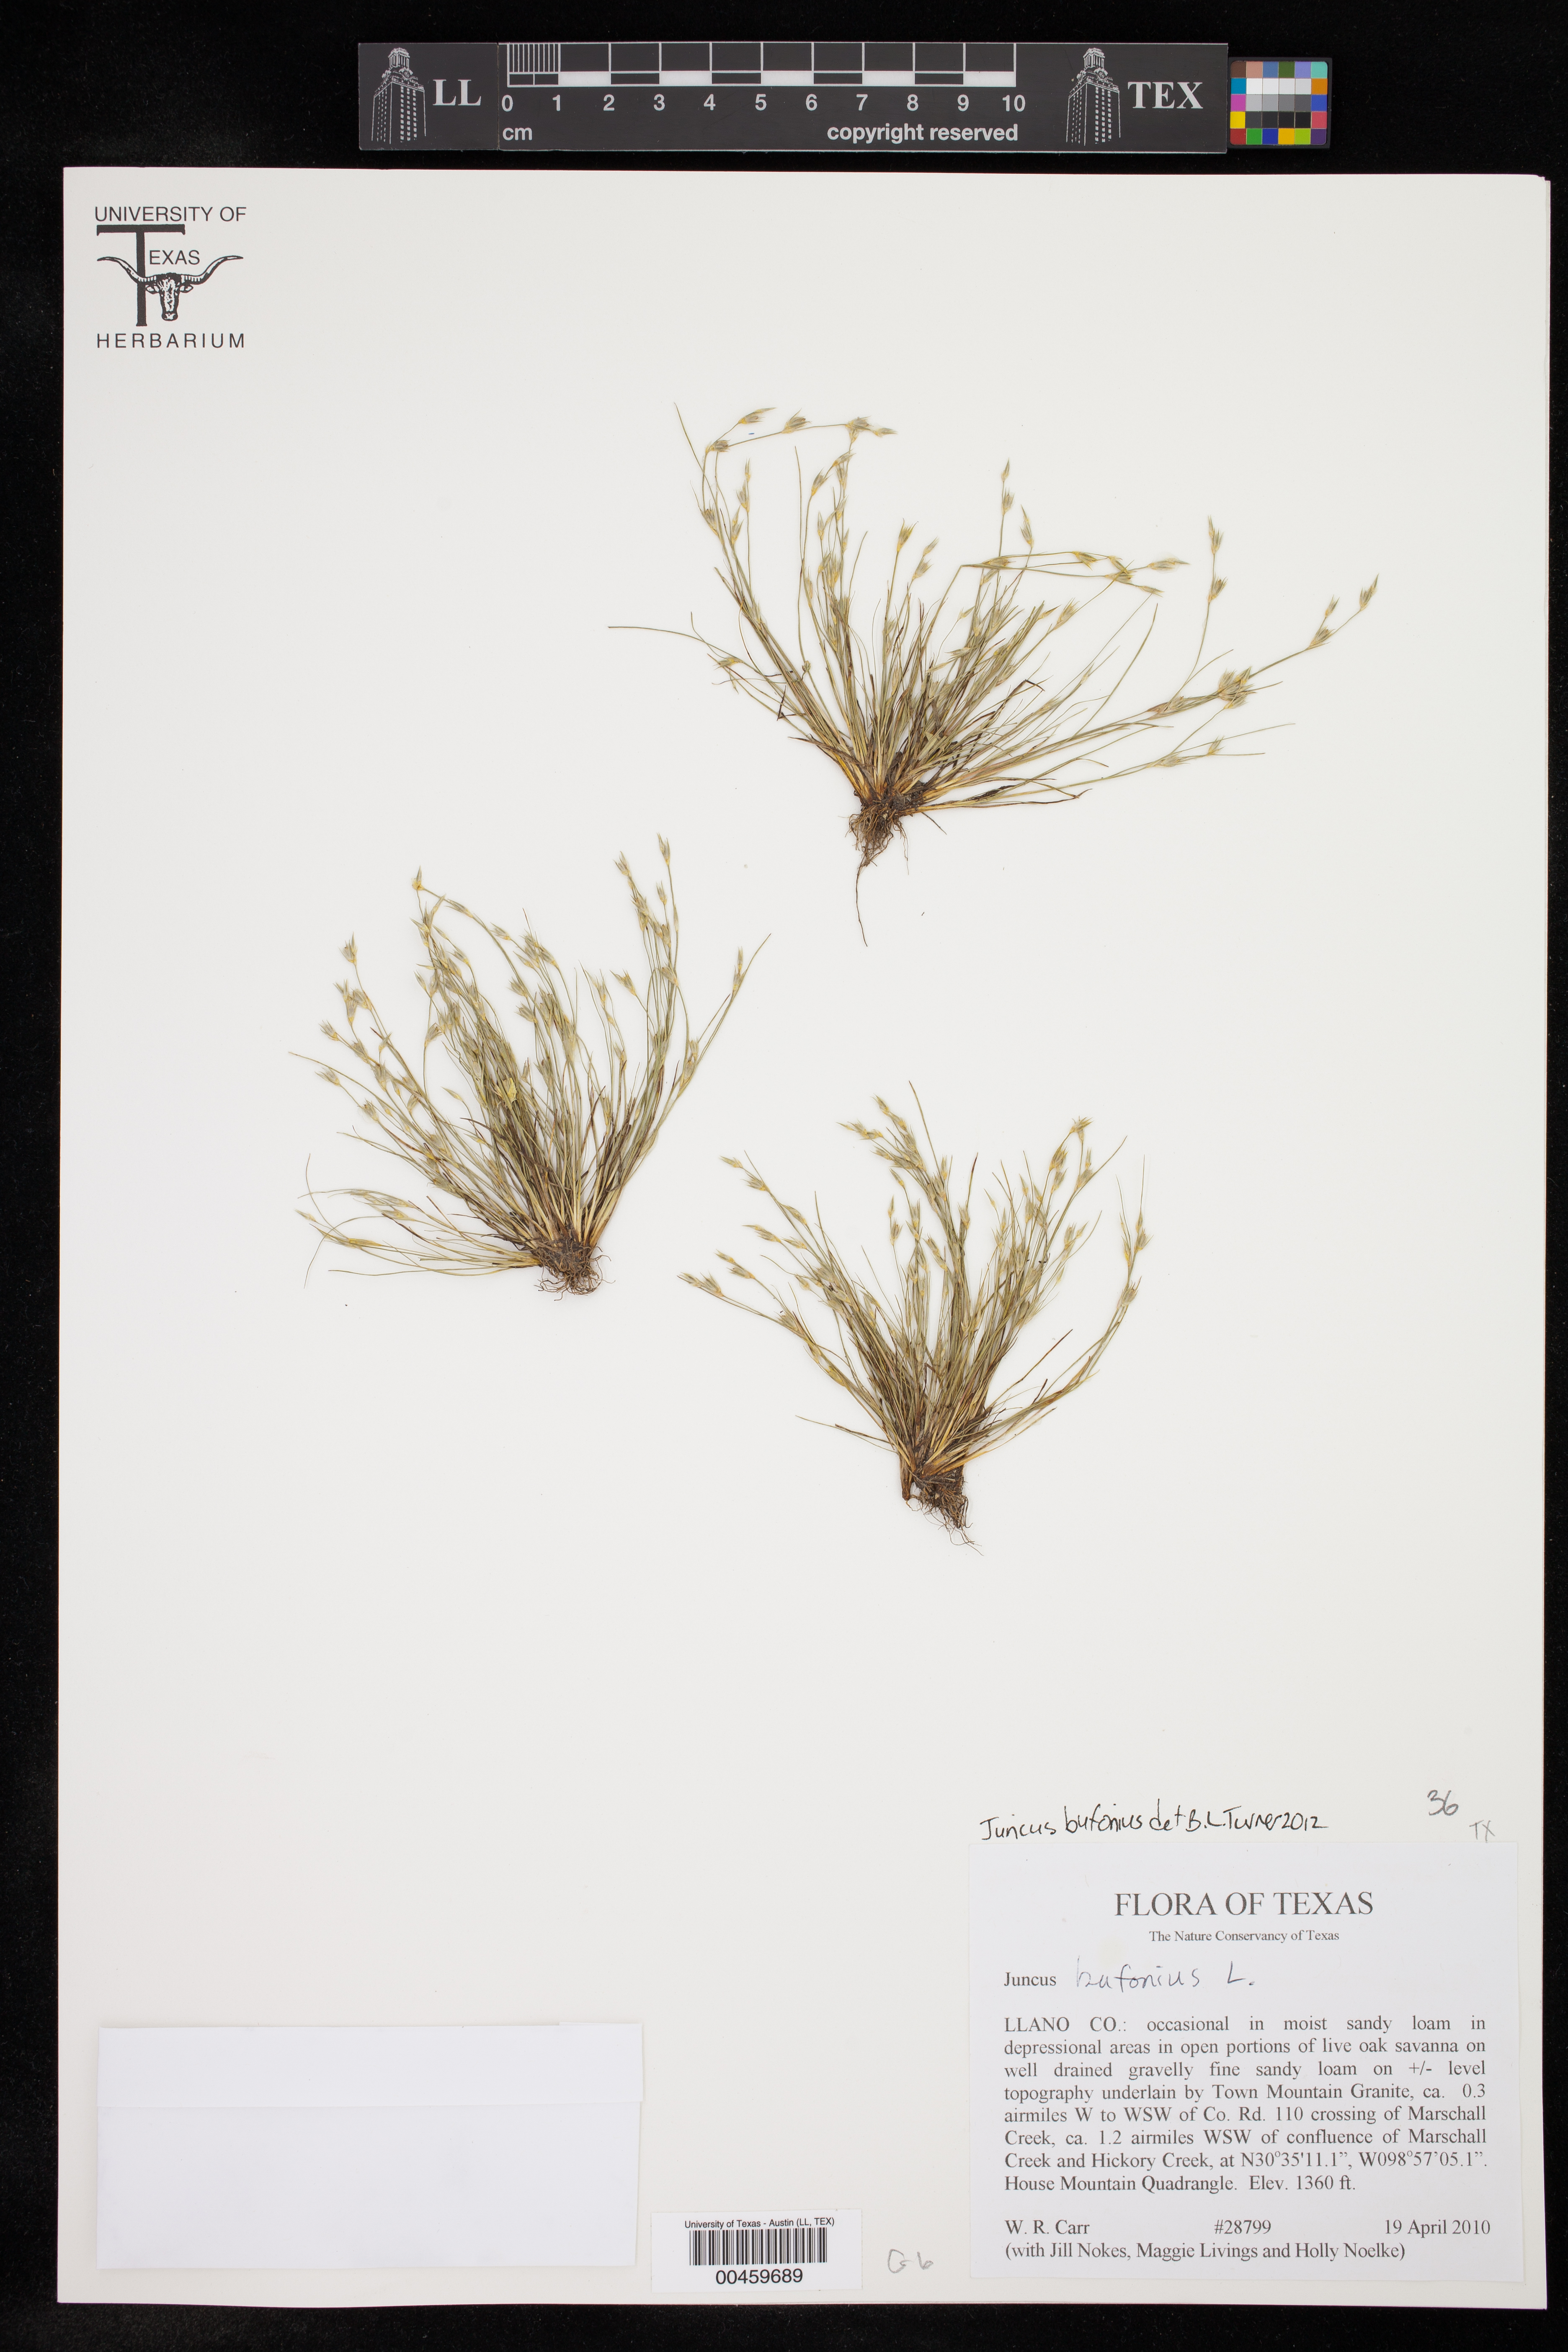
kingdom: Plantae
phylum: Tracheophyta
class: Liliopsida
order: Poales
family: Juncaceae
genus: Juncus
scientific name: Juncus bufonius
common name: Toad rush
